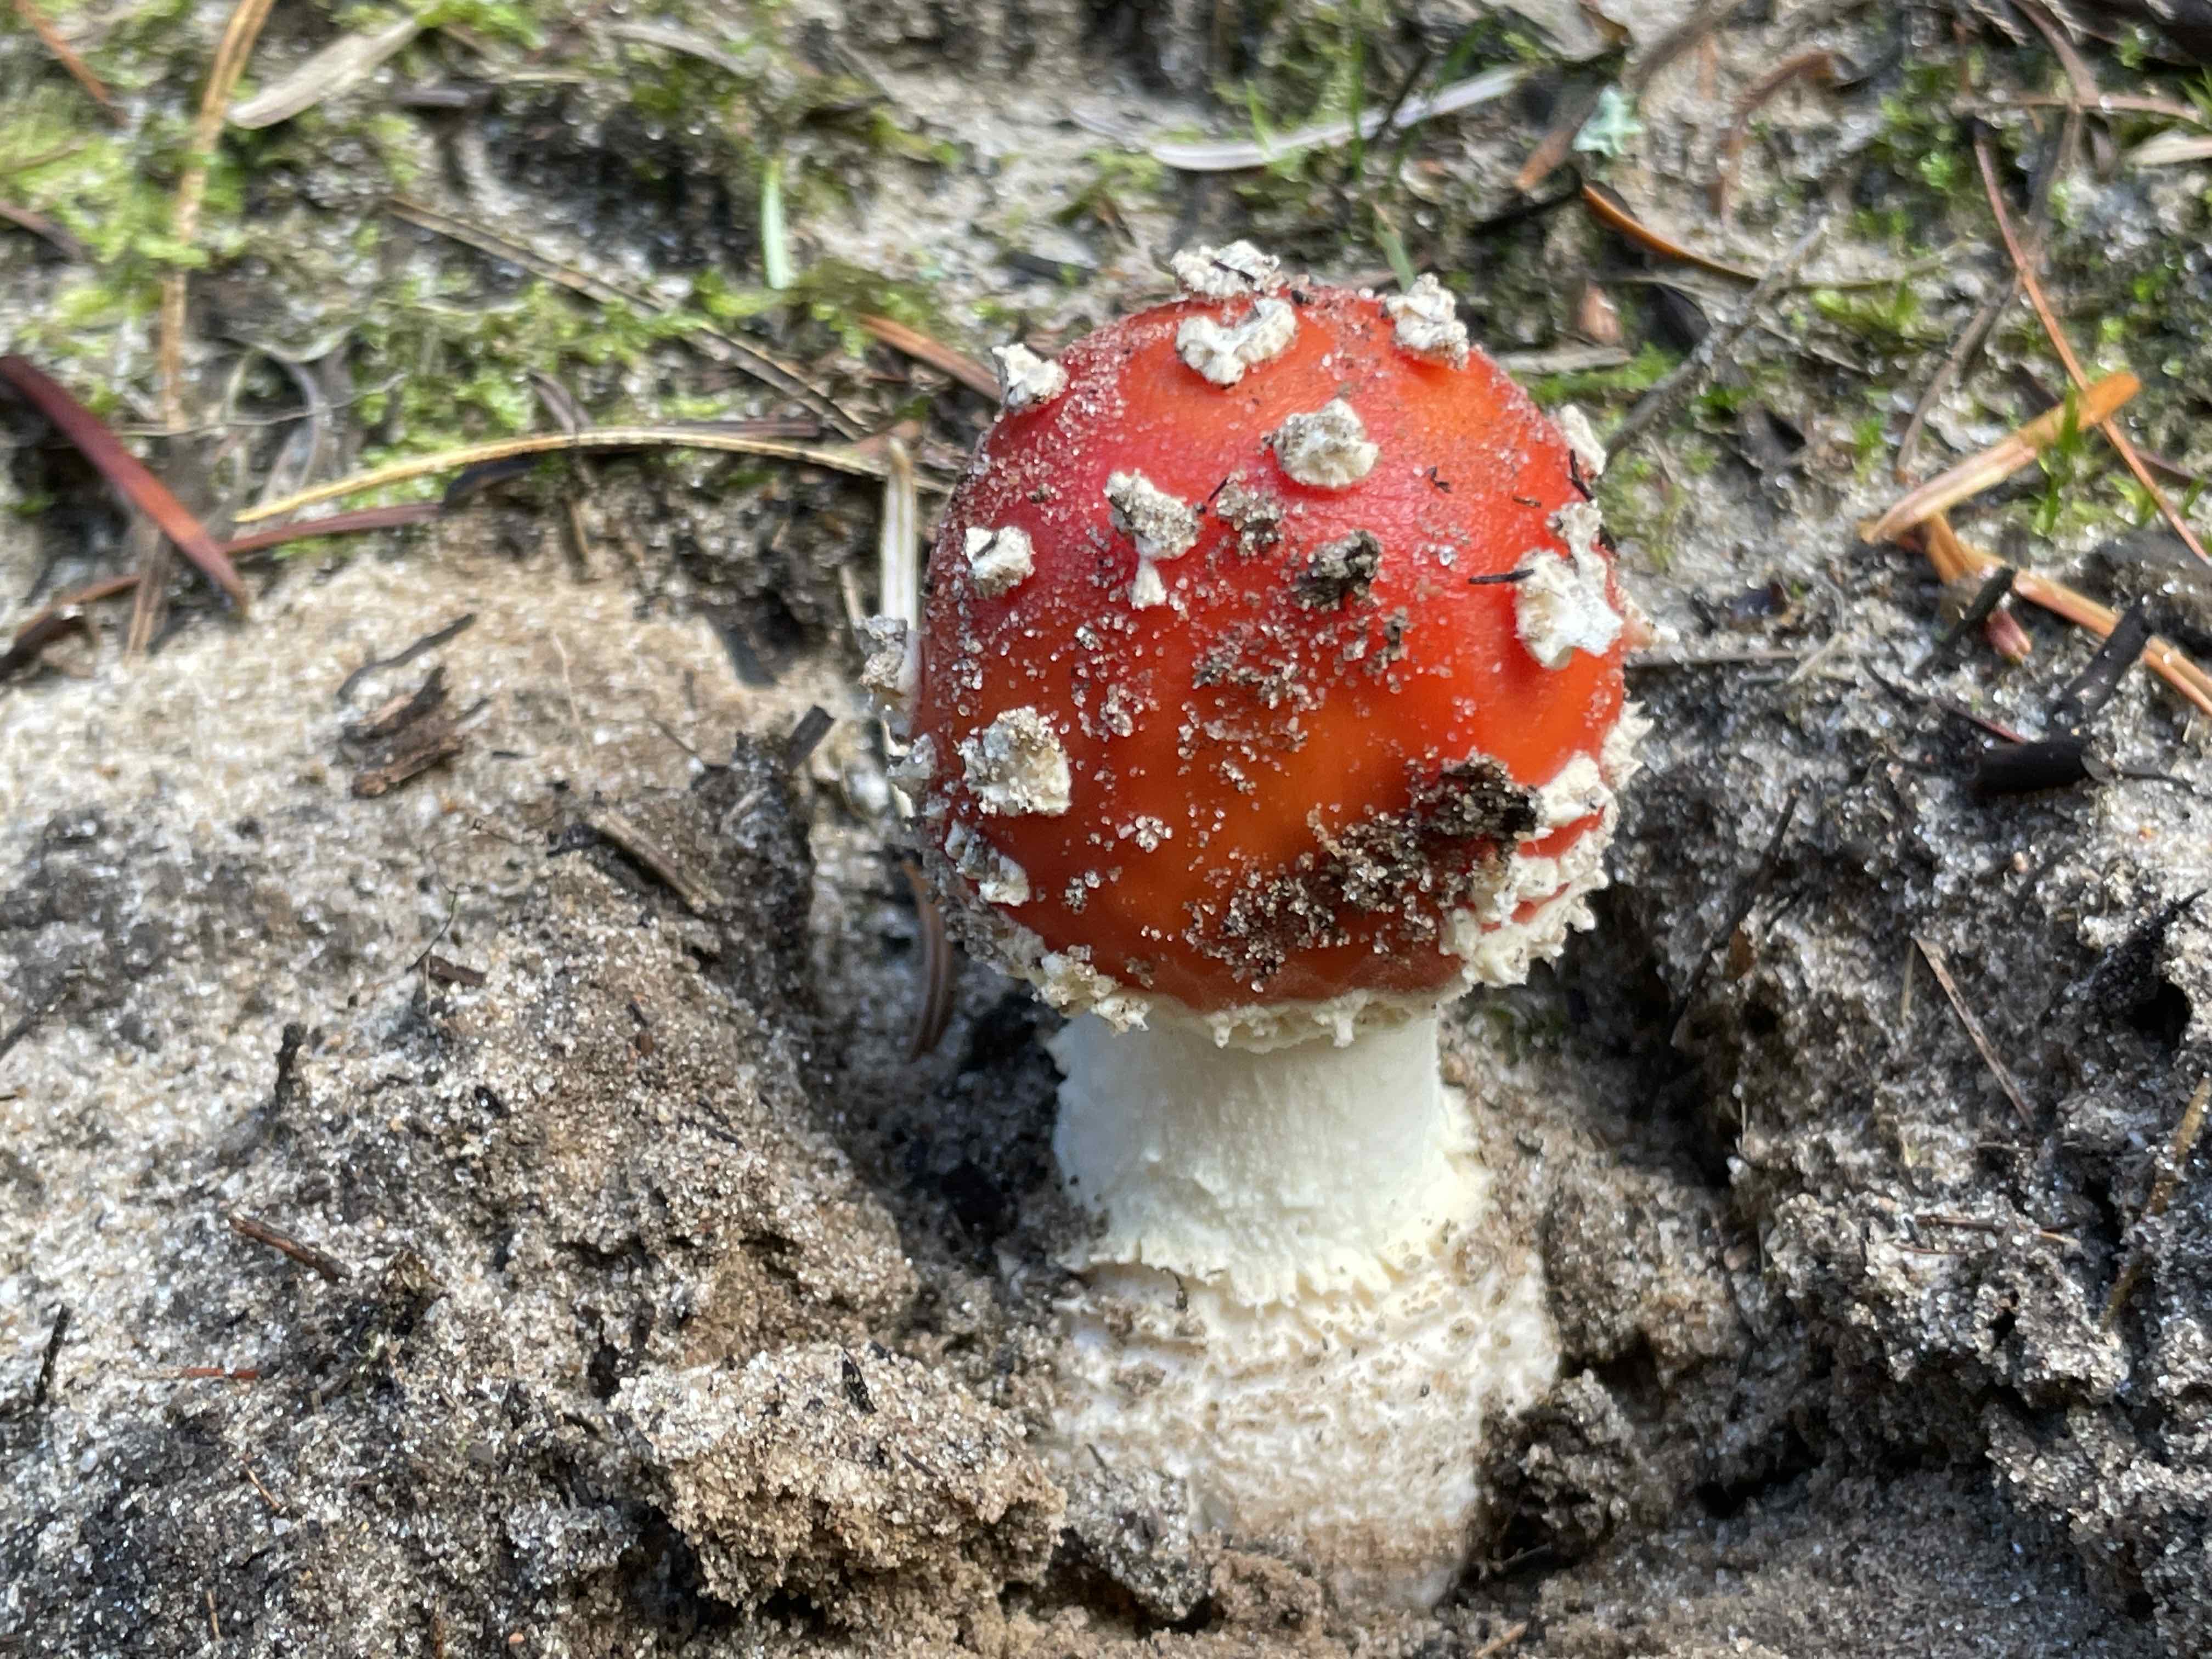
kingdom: Fungi
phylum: Basidiomycota
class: Agaricomycetes
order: Agaricales
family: Amanitaceae
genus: Amanita
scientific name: Amanita muscaria
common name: rød fluesvamp
